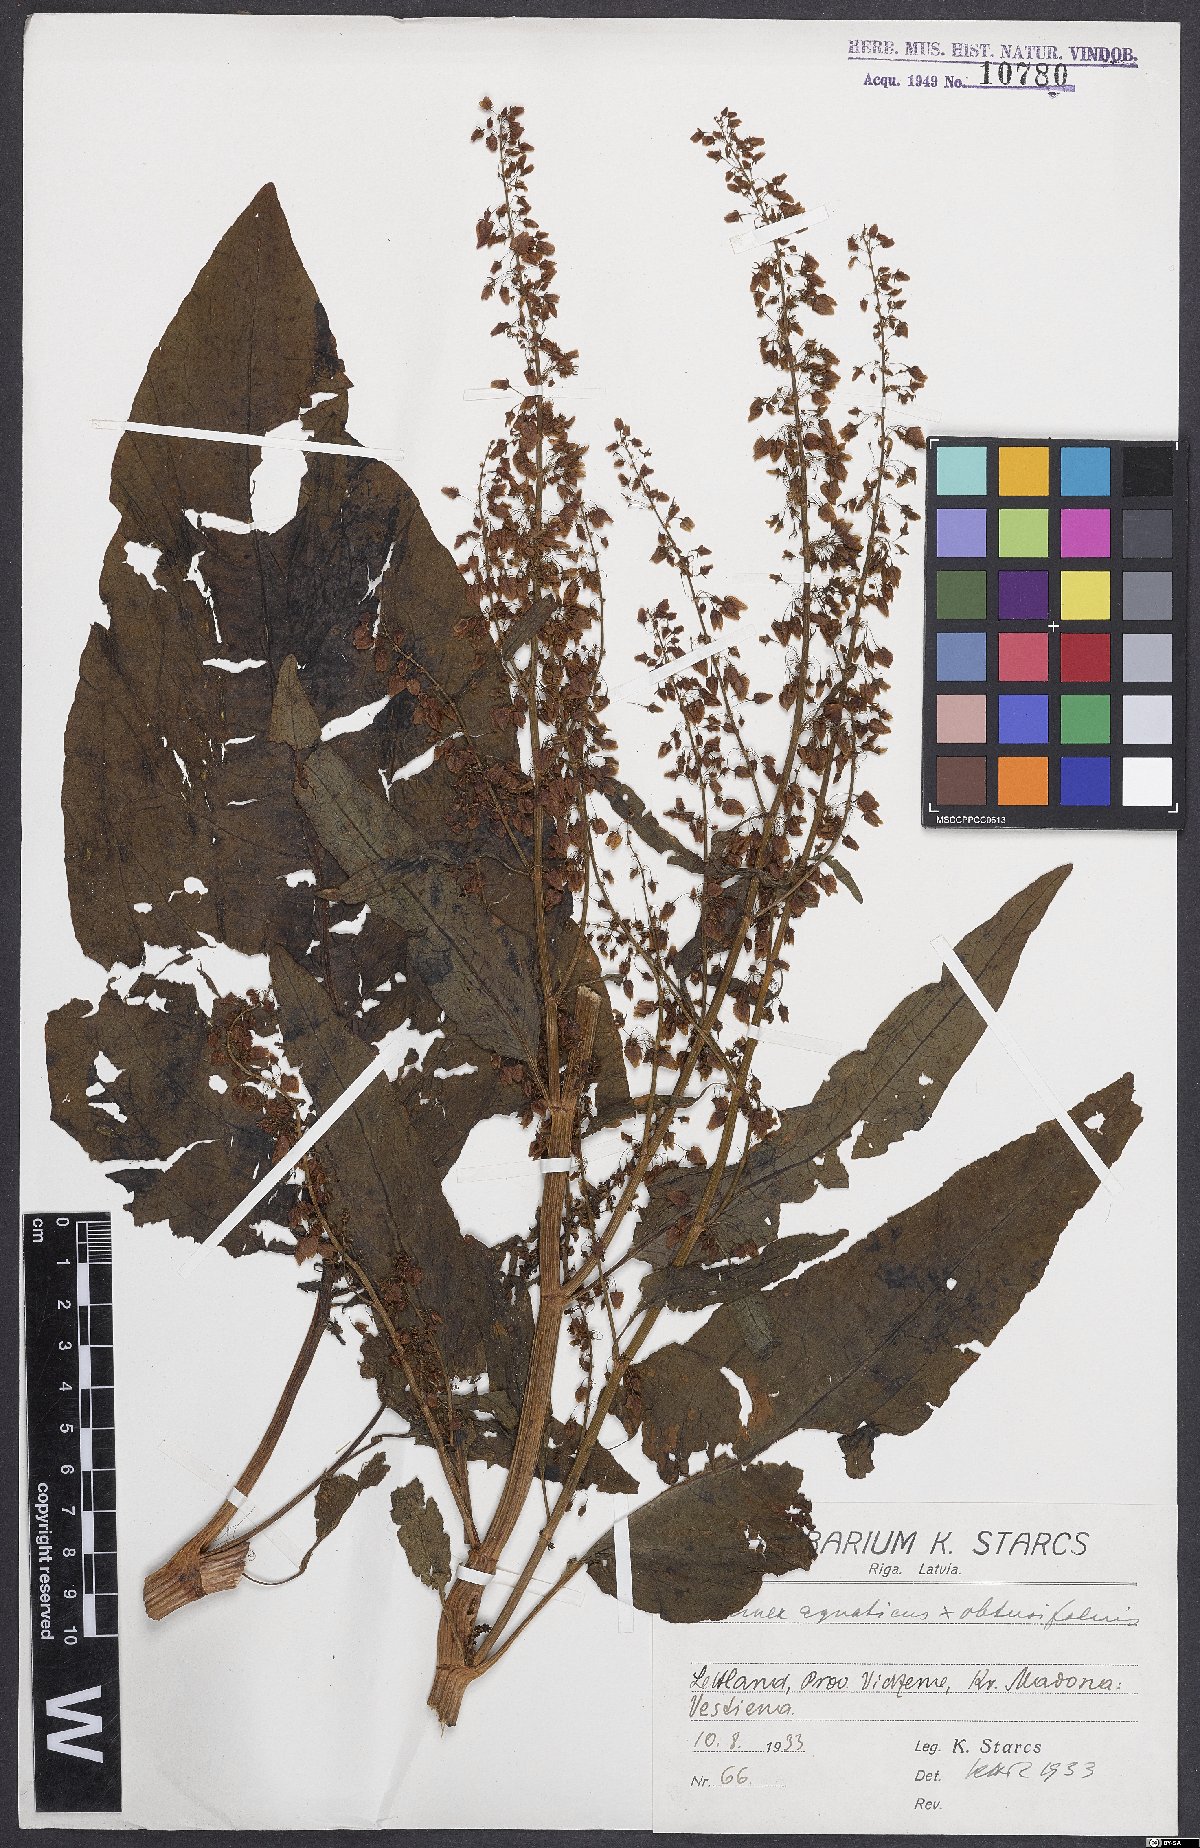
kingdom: Plantae
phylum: Tracheophyta
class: Magnoliopsida
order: Caryophyllales
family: Polygonaceae
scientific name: Polygonaceae
